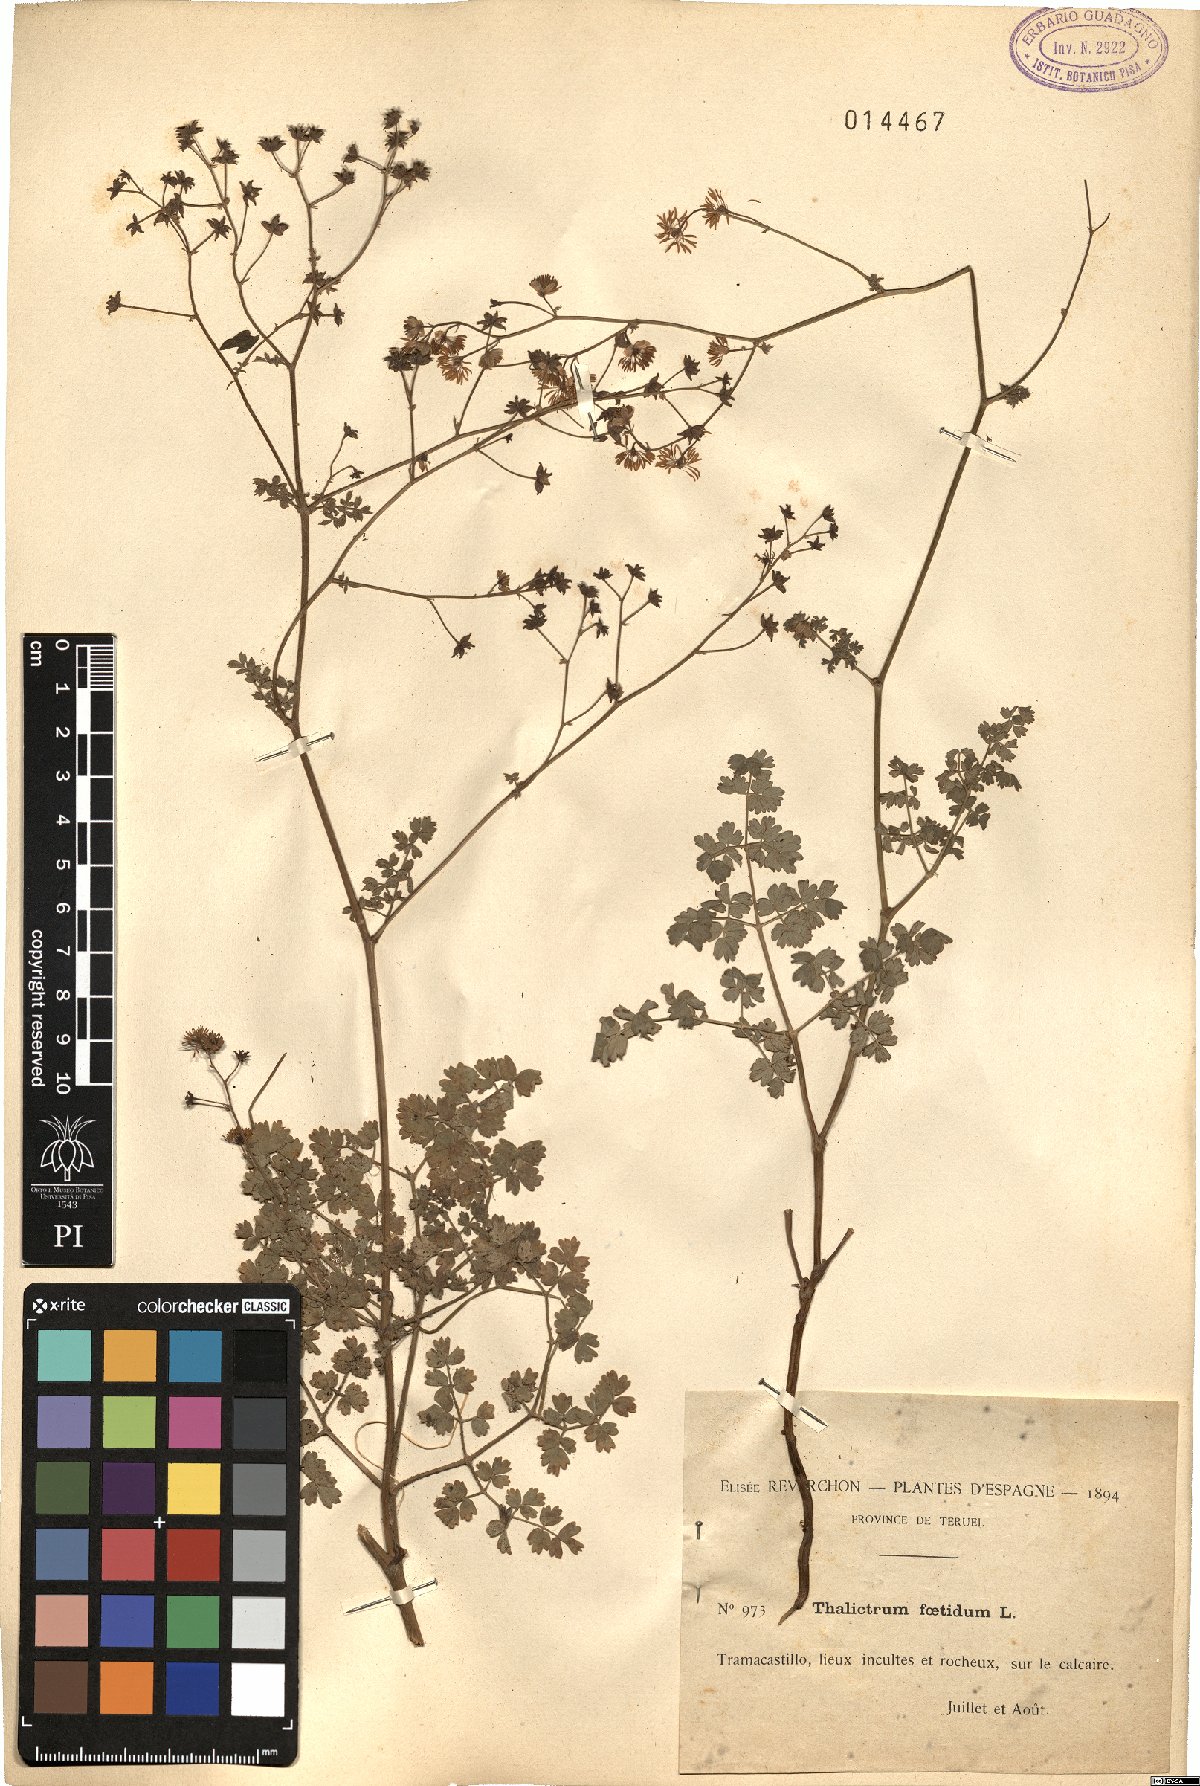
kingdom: Plantae
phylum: Tracheophyta
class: Magnoliopsida
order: Ranunculales
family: Ranunculaceae
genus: Thalictrum
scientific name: Thalictrum foetidum
